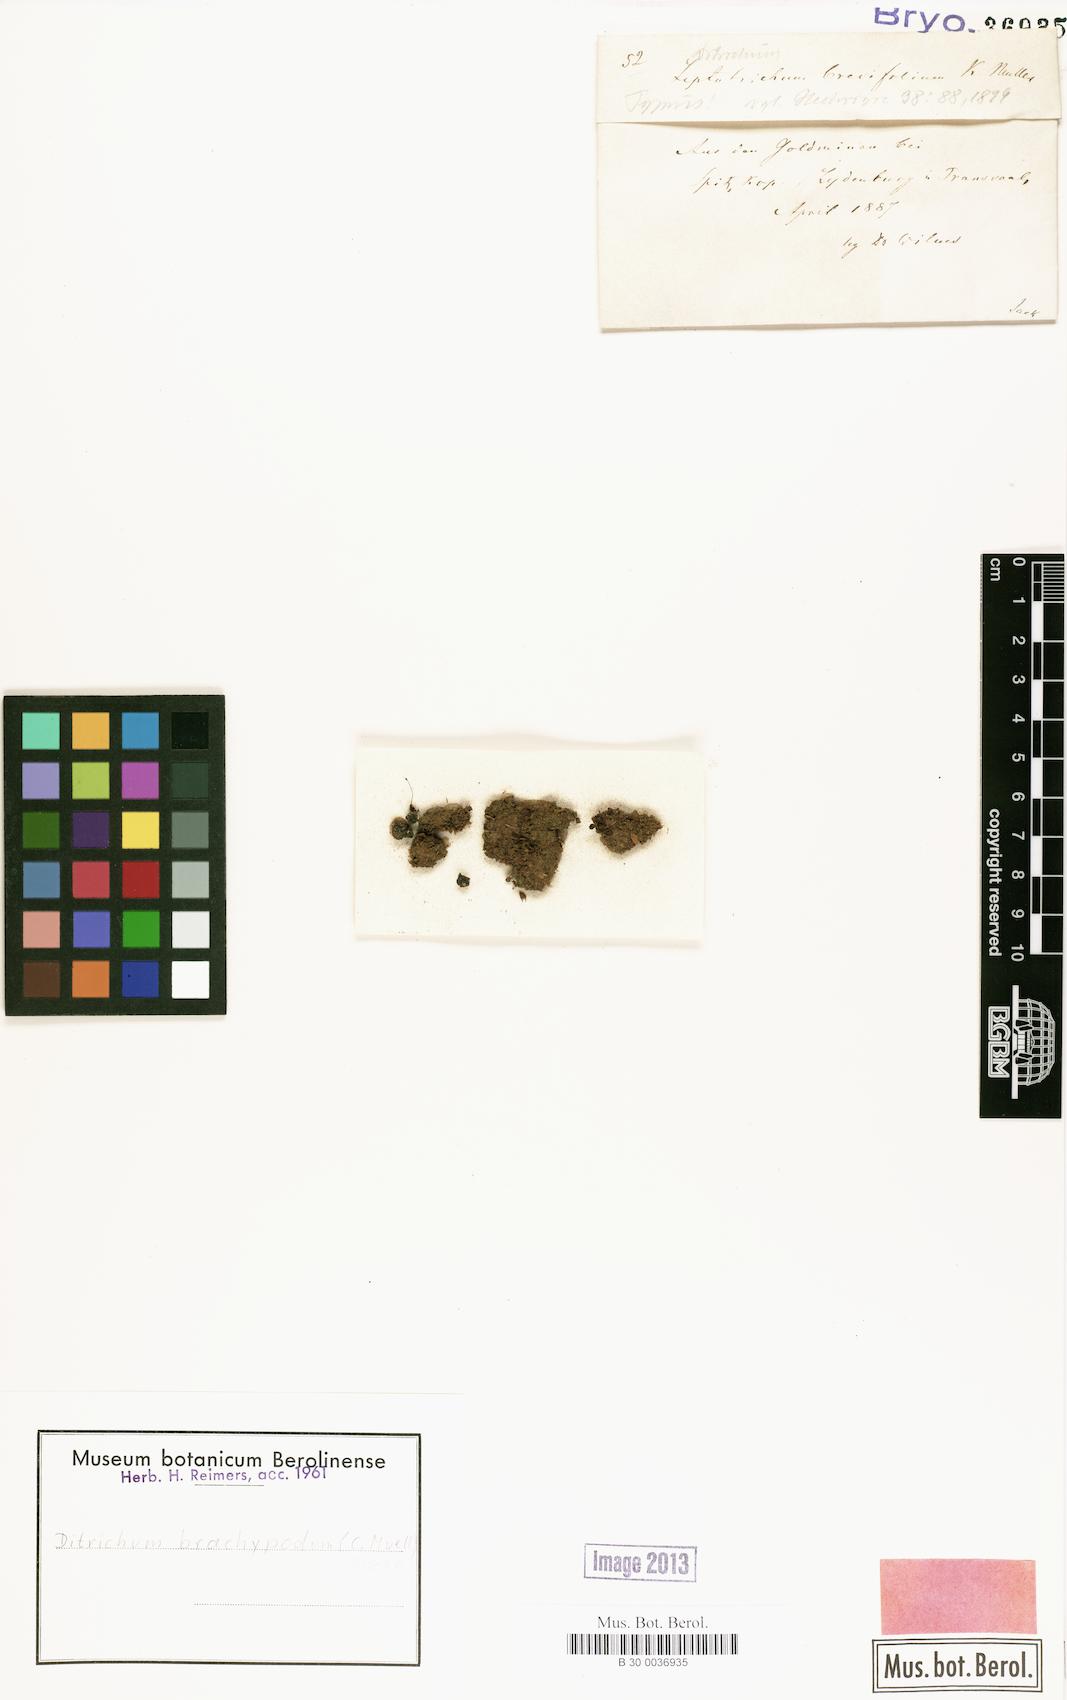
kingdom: Plantae
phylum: Bryophyta
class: Bryopsida
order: Dicranales
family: Ditrichaceae
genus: Ditrichum
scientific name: Ditrichum brachypodum
